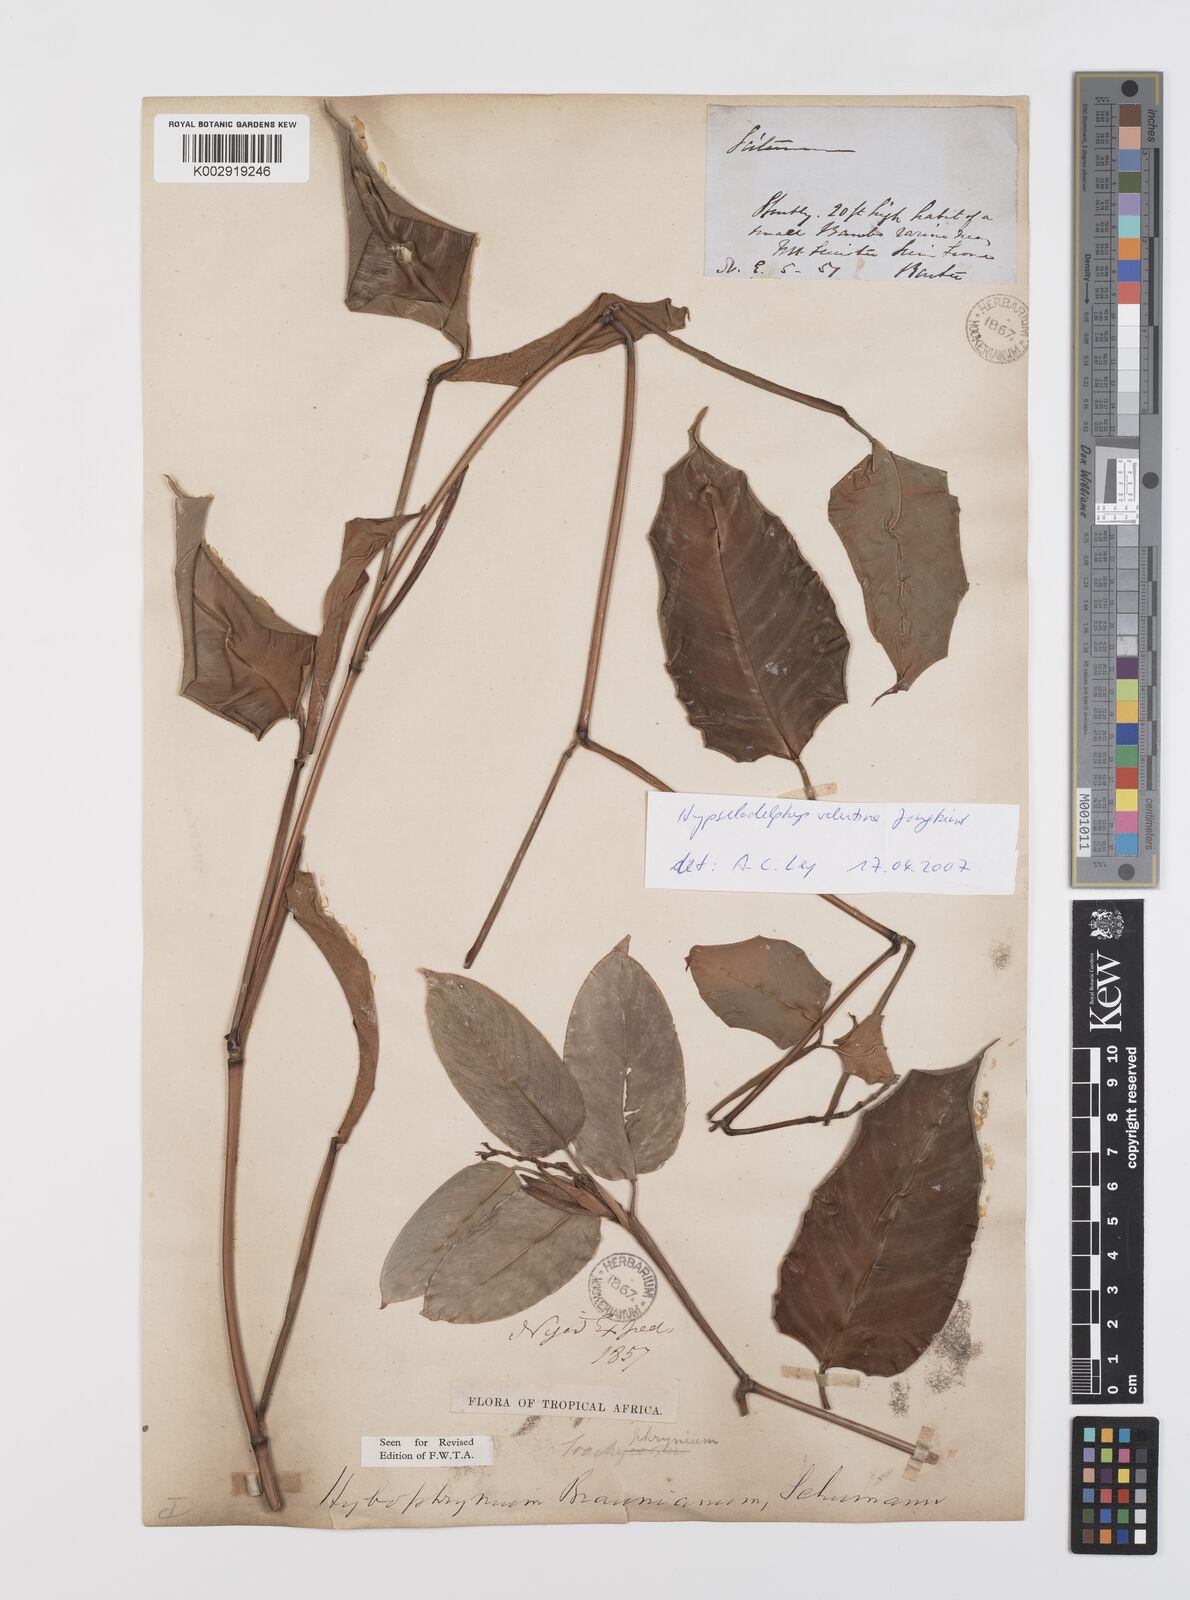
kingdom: Plantae
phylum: Tracheophyta
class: Liliopsida
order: Zingiberales
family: Marantaceae
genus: Hypselodelphys
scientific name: Hypselodelphys velutina
